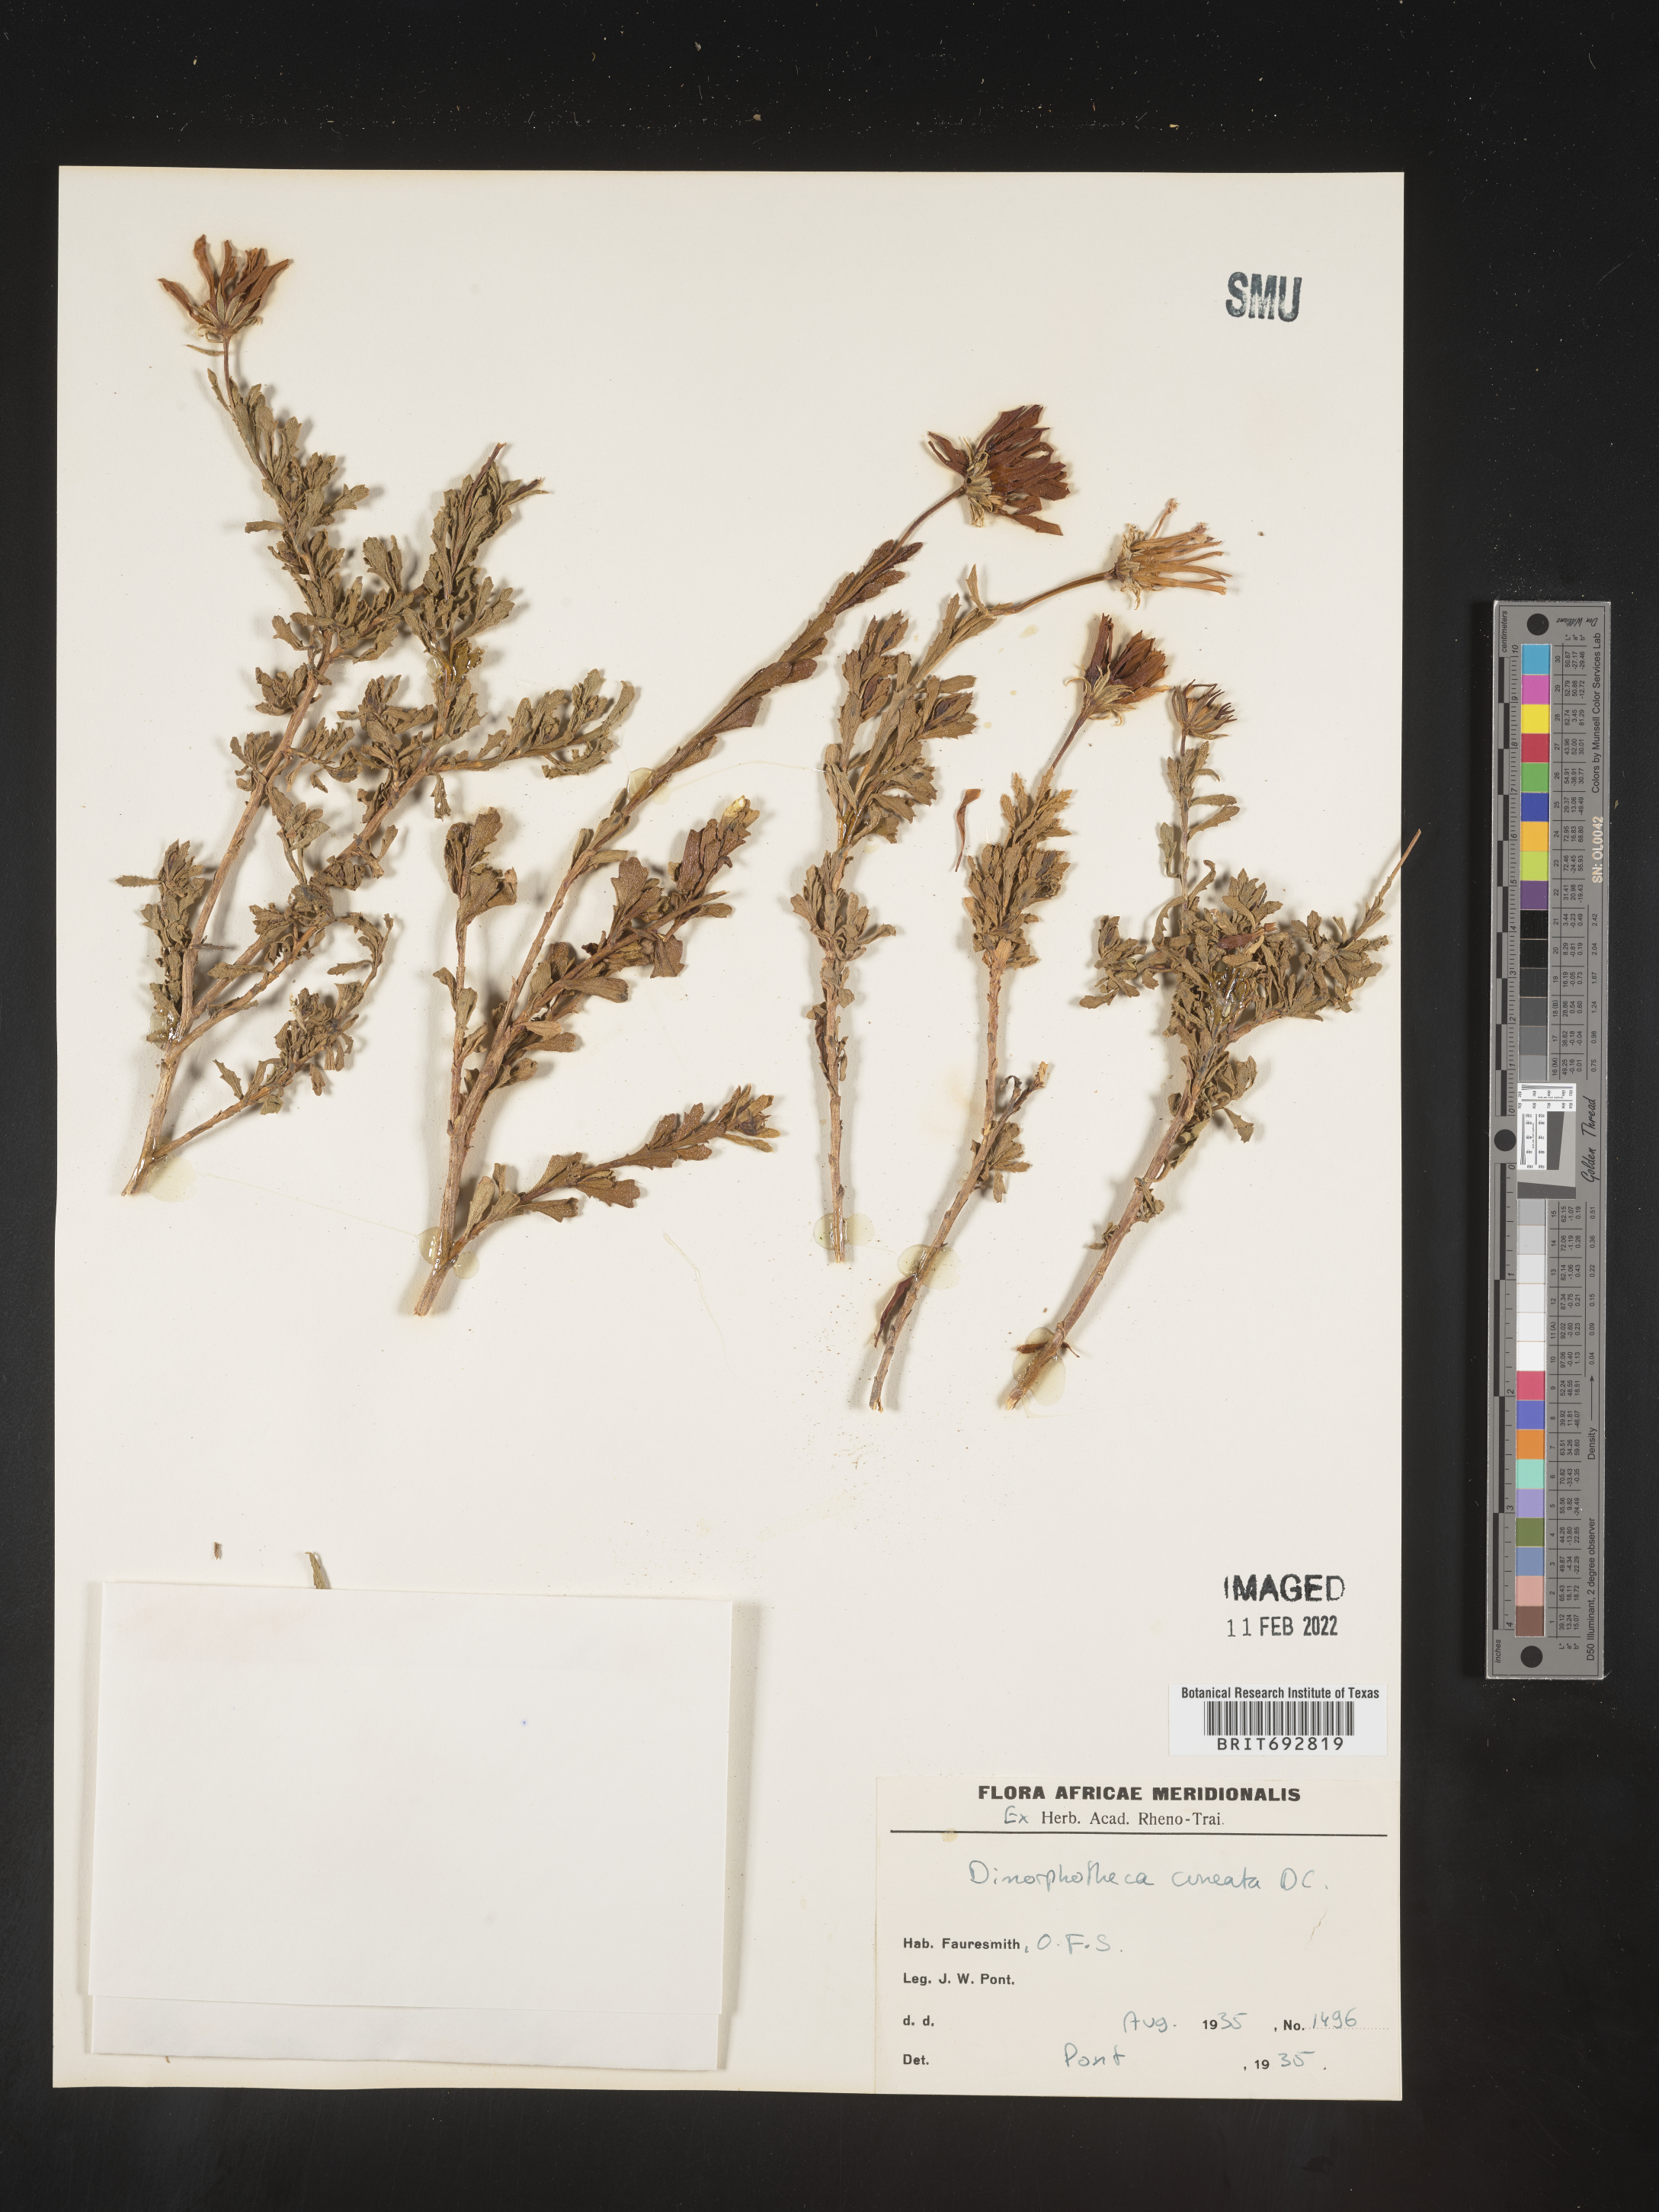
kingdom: Plantae
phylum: Tracheophyta
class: Magnoliopsida
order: Asterales
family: Asteraceae
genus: Dimorphotheca
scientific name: Dimorphotheca
